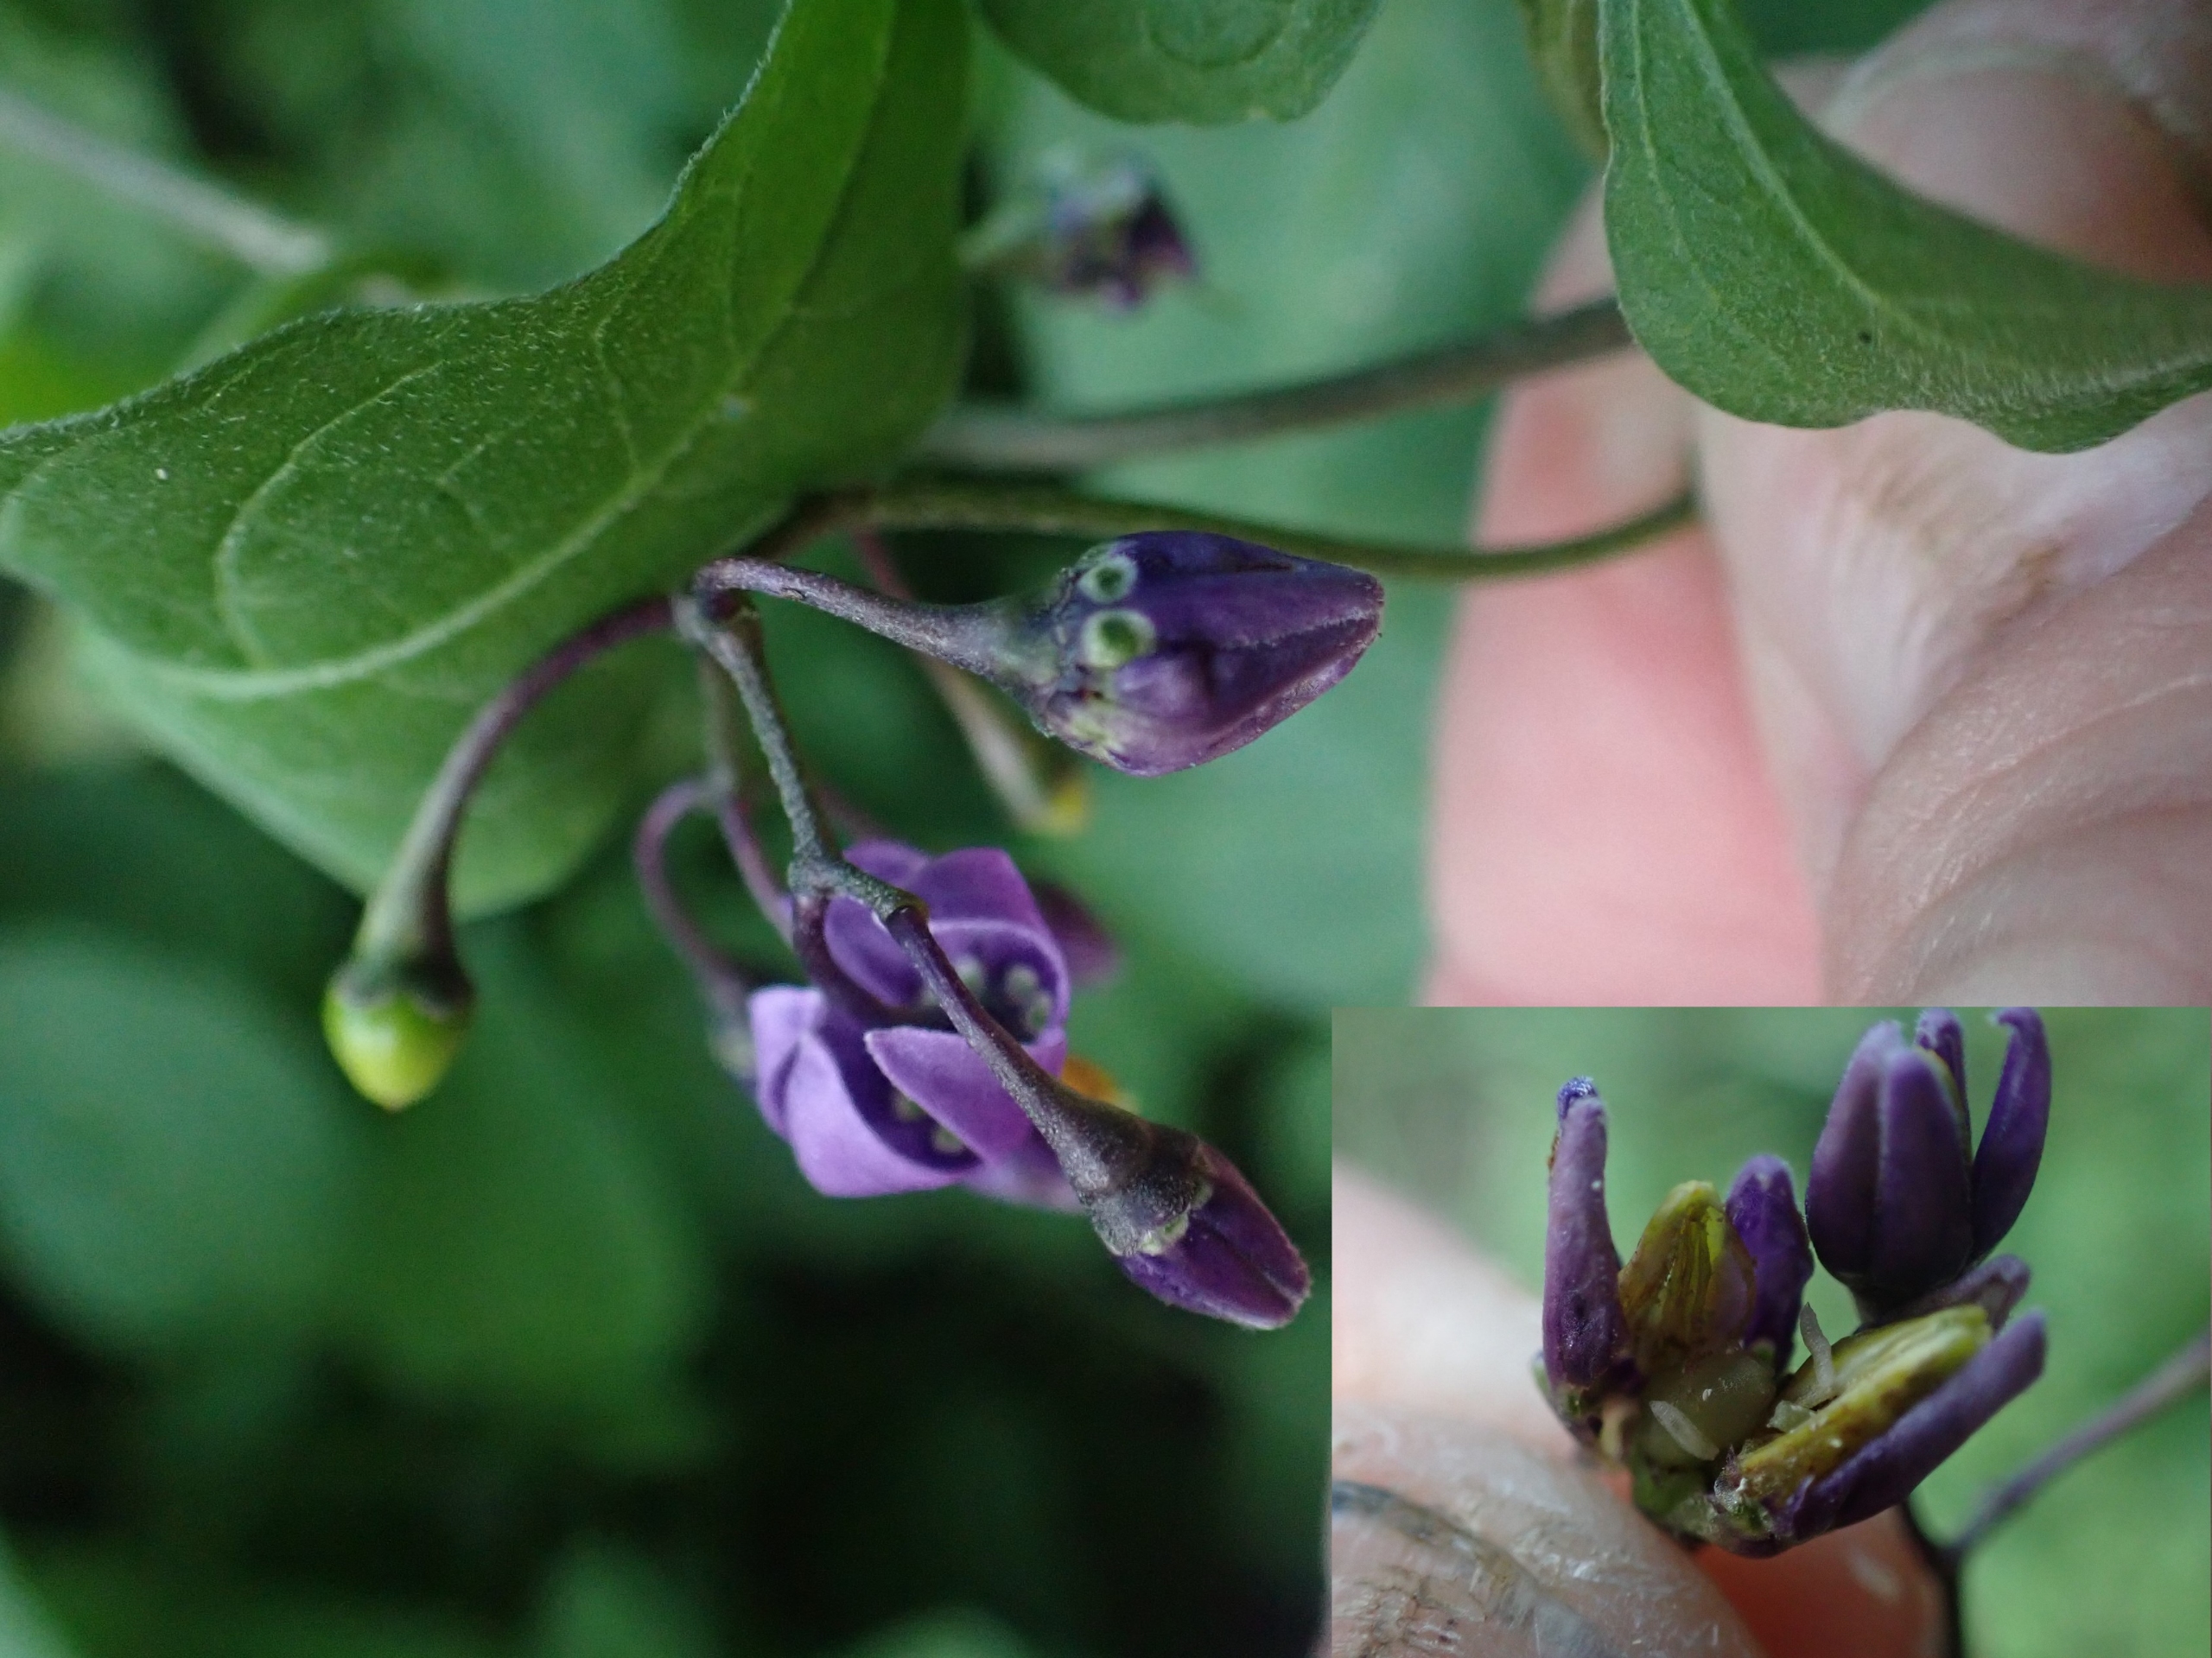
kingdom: Animalia
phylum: Arthropoda
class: Insecta
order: Diptera
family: Cecidomyiidae
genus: Contarinia
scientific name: Contarinia solani
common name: Natskyggegalmyg
